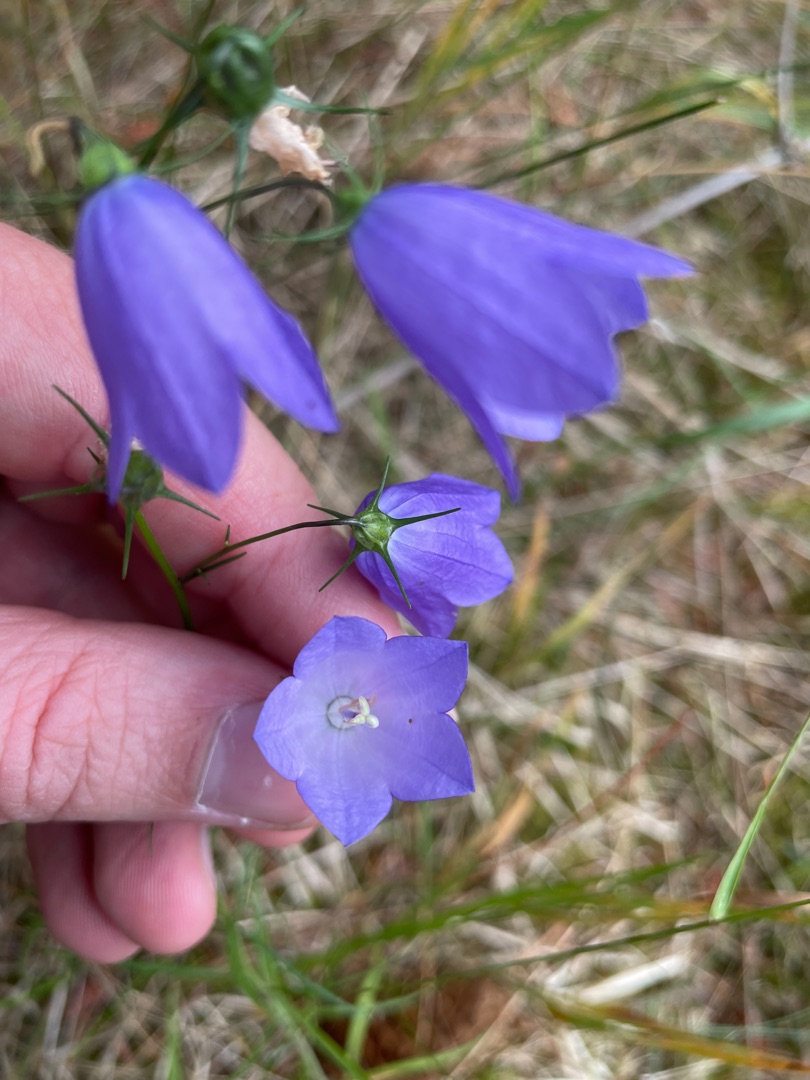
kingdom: Plantae
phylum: Tracheophyta
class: Magnoliopsida
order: Asterales
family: Campanulaceae
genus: Campanula
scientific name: Campanula rotundifolia
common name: Liden klokke
